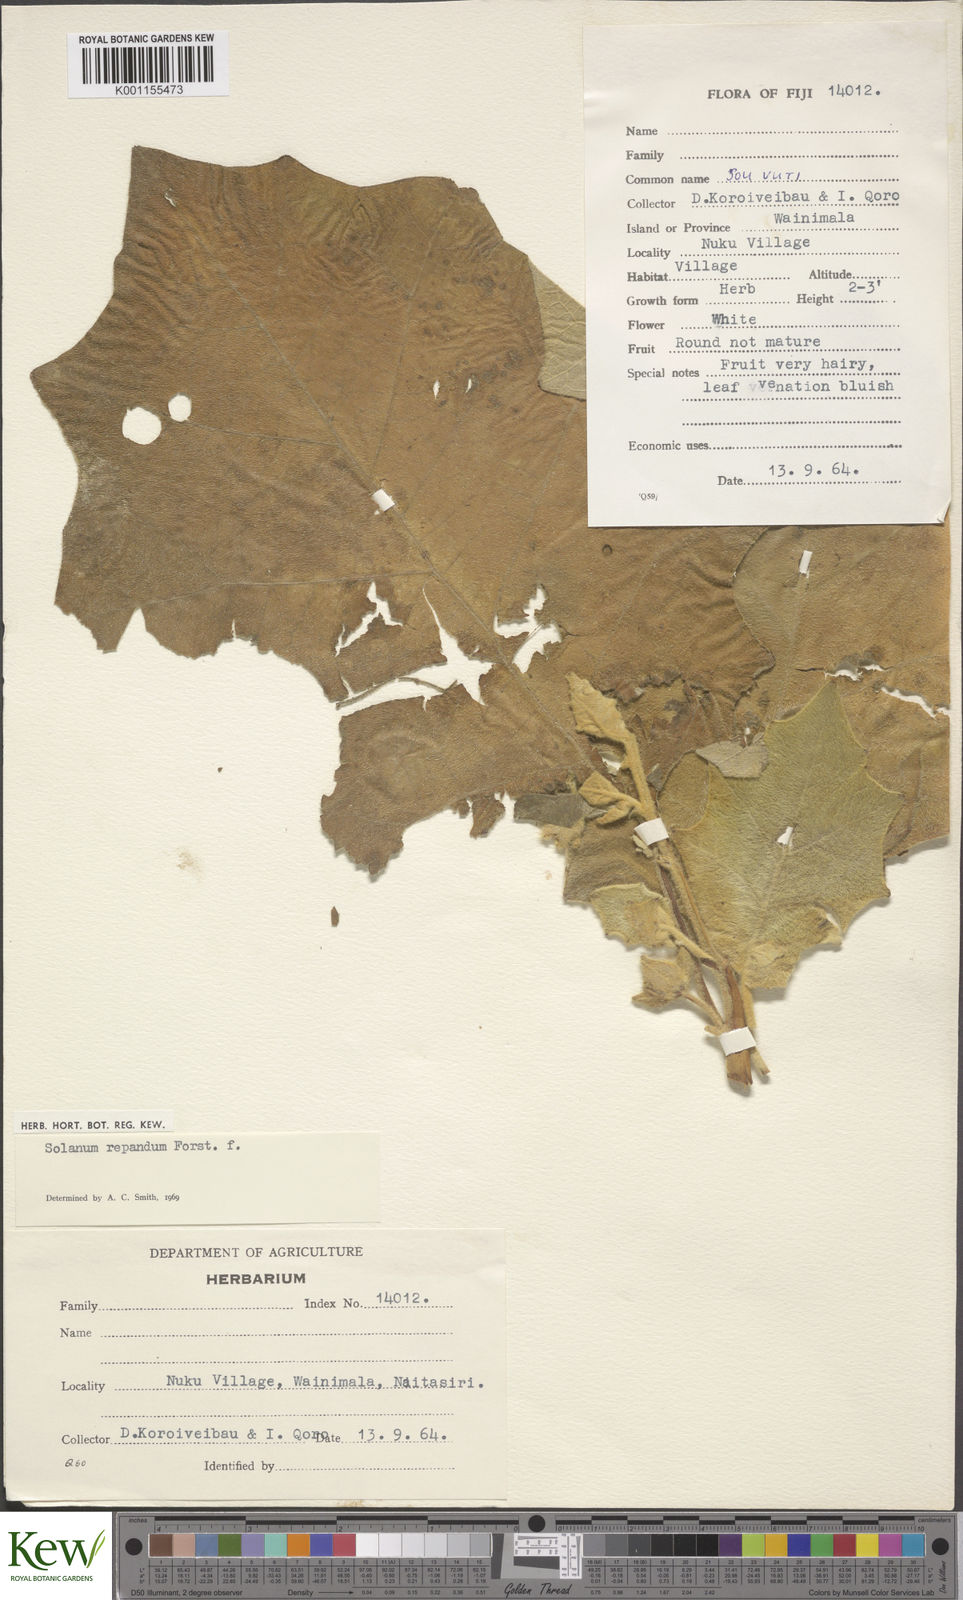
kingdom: Plantae
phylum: Tracheophyta
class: Magnoliopsida
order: Solanales
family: Solanaceae
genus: Solanum
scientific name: Solanum repandum
